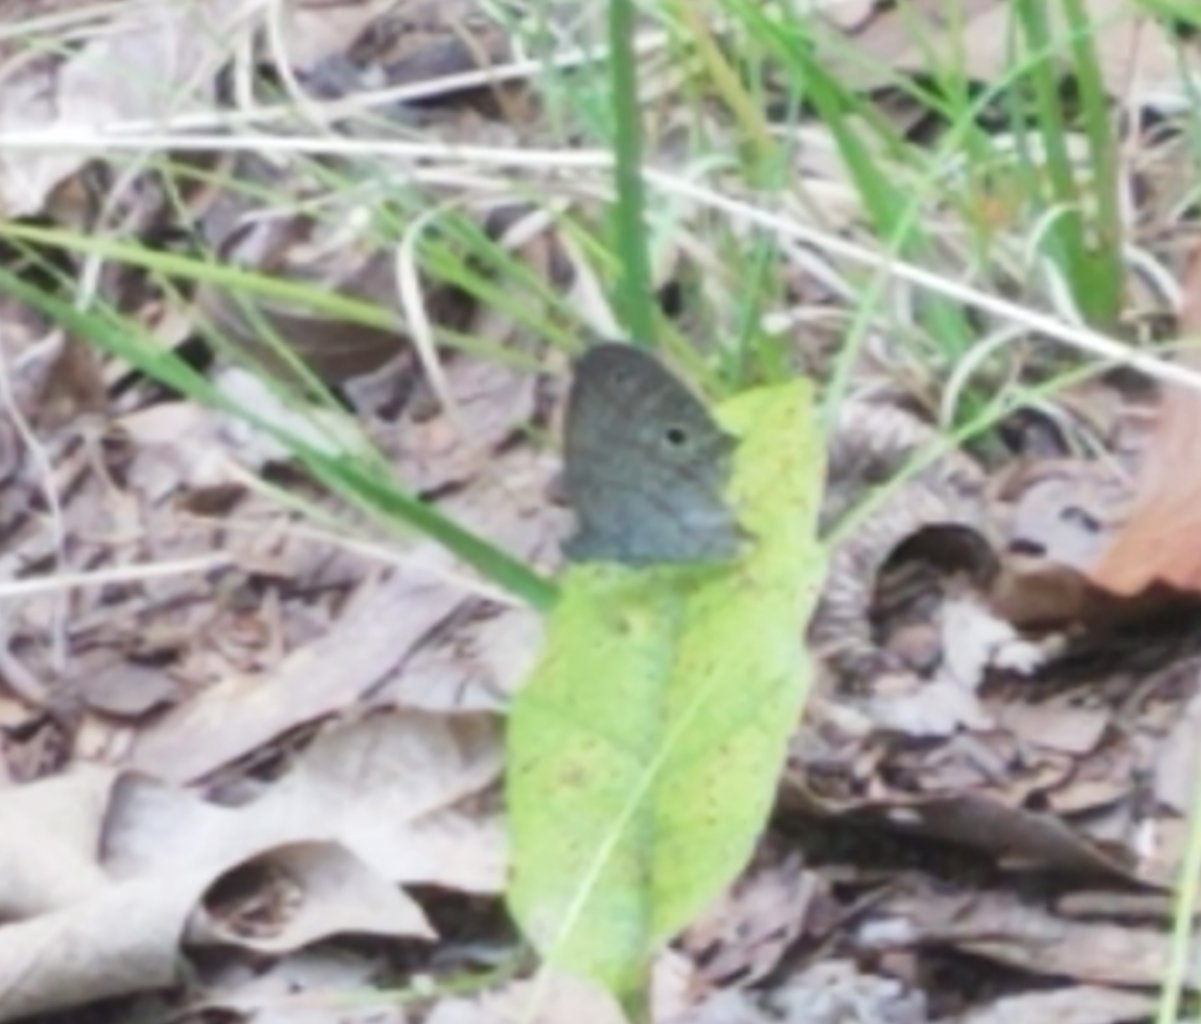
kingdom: Animalia
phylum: Arthropoda
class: Insecta
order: Lepidoptera
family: Nymphalidae
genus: Hermeuptychia
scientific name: Hermeuptychia hermes
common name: Carolina Satyr
